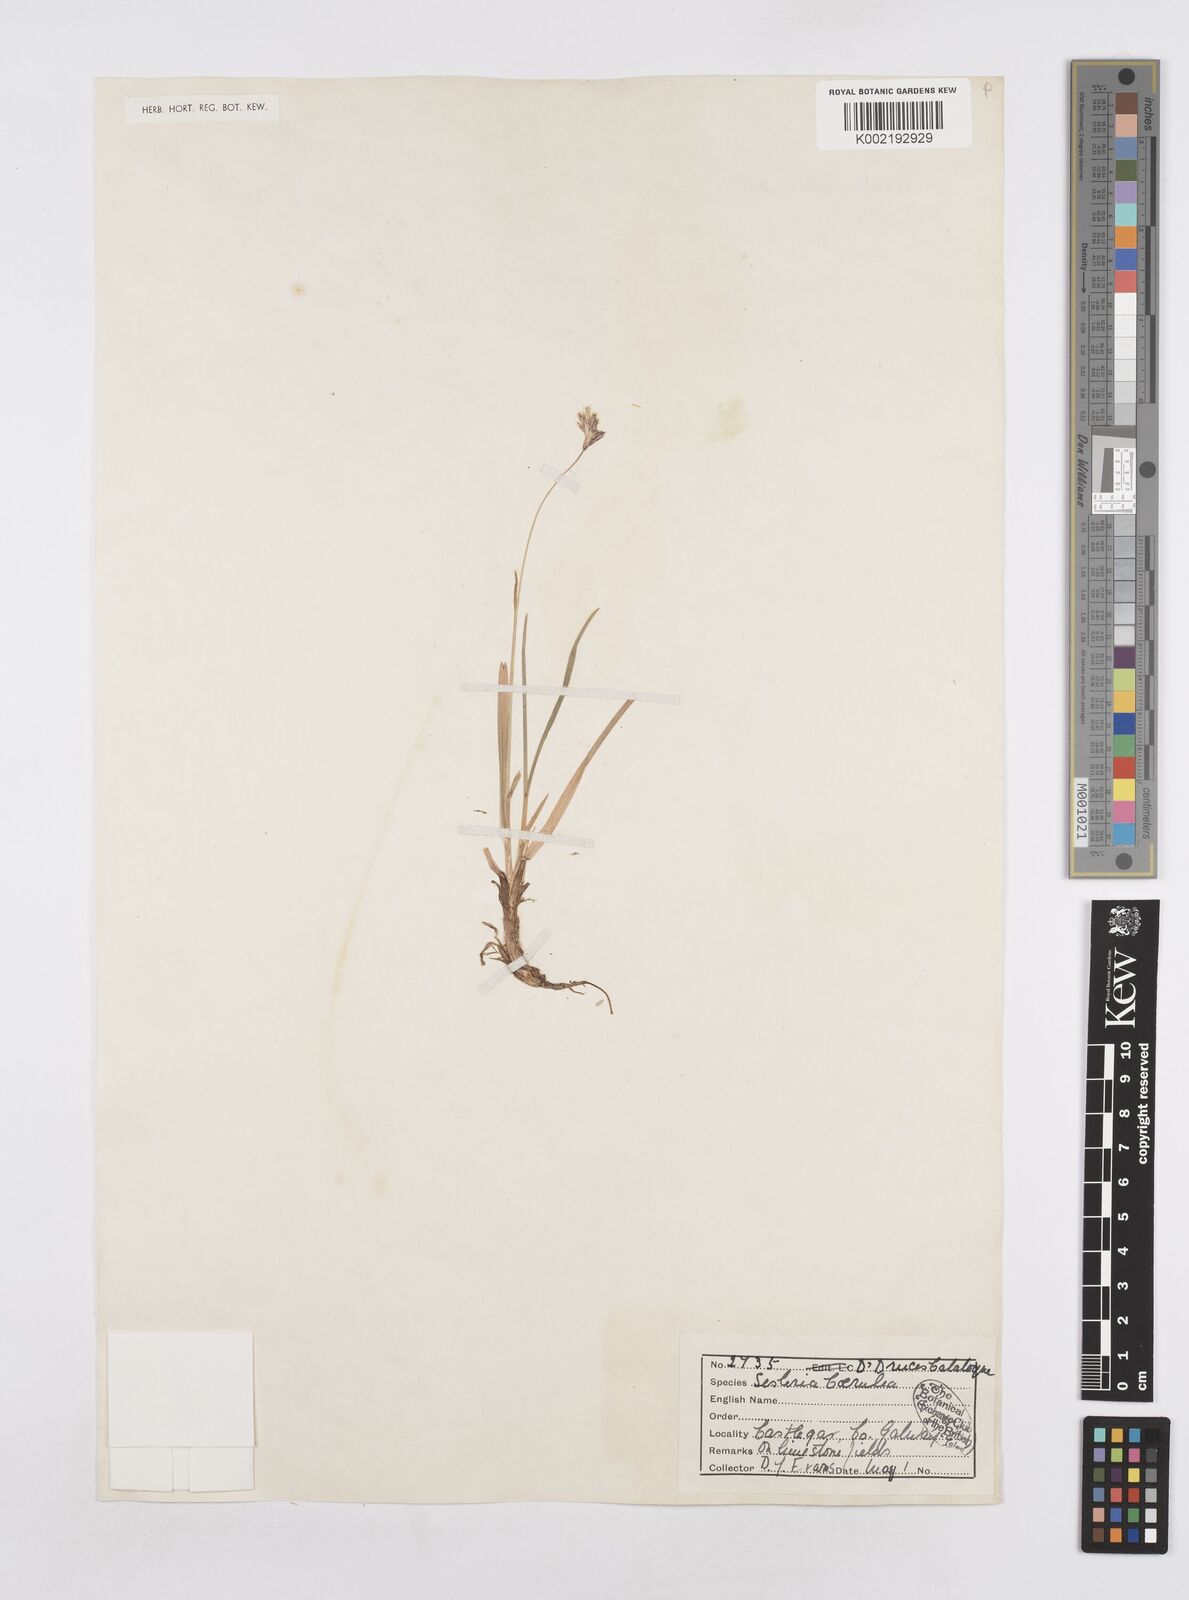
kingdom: Plantae
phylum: Tracheophyta
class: Liliopsida
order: Poales
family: Poaceae
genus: Sesleria
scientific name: Sesleria caerulea
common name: Blue moor-grass
